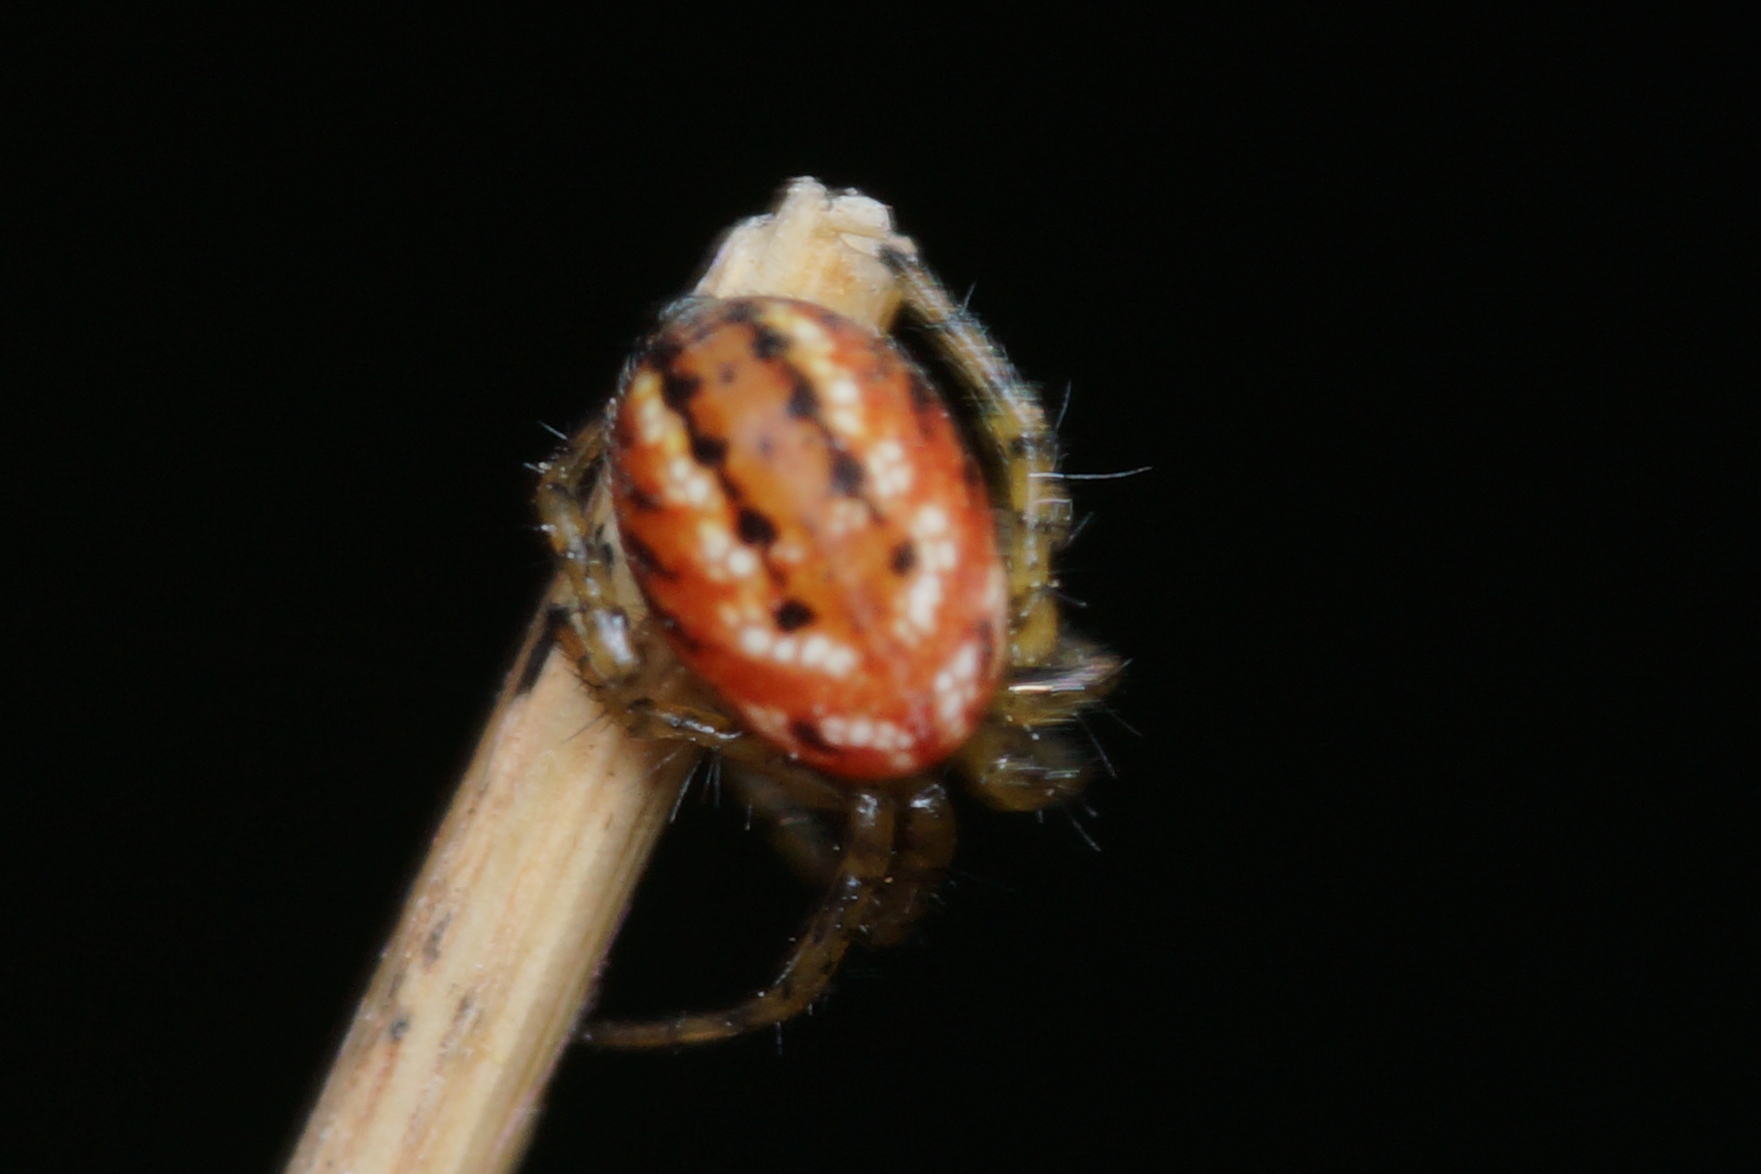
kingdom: Animalia
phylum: Arthropoda
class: Arachnida
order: Araneae
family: Araneidae
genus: Mangora
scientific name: Mangora acalypha
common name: Sortstribet hedehjulspinder
